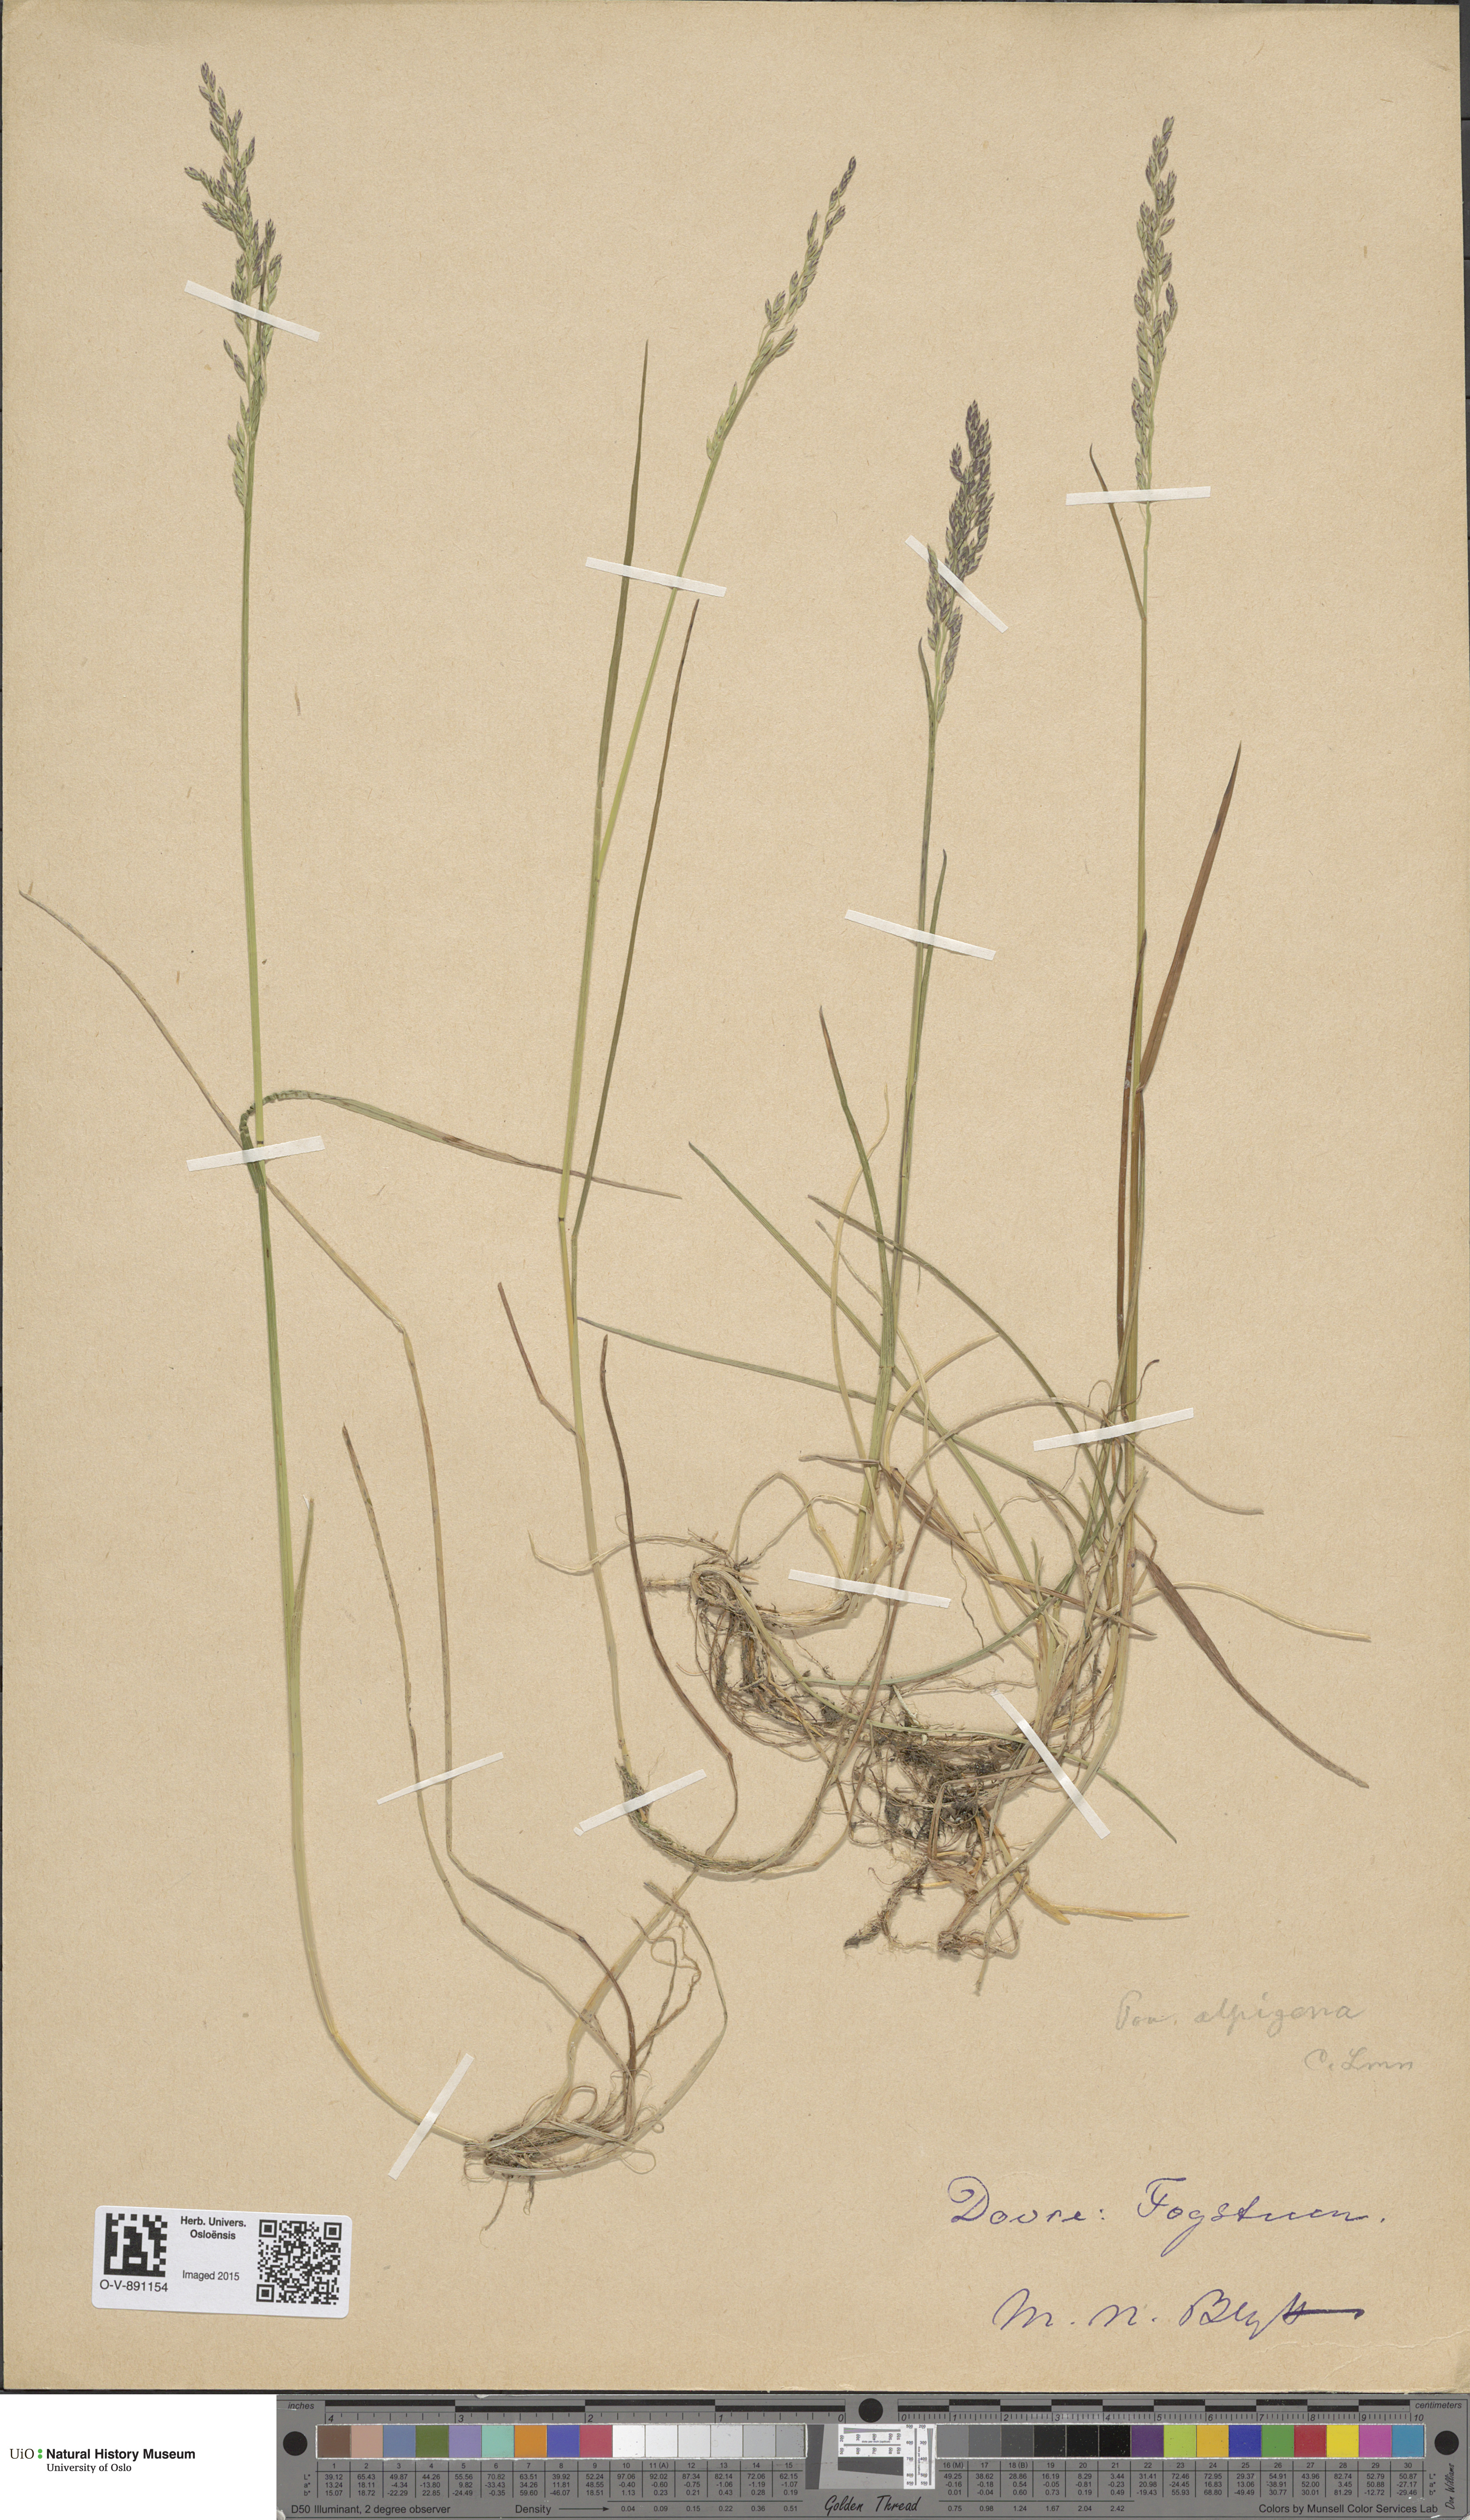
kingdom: Plantae
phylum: Tracheophyta
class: Liliopsida
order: Poales
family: Poaceae
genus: Poa
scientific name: Poa alpigena
